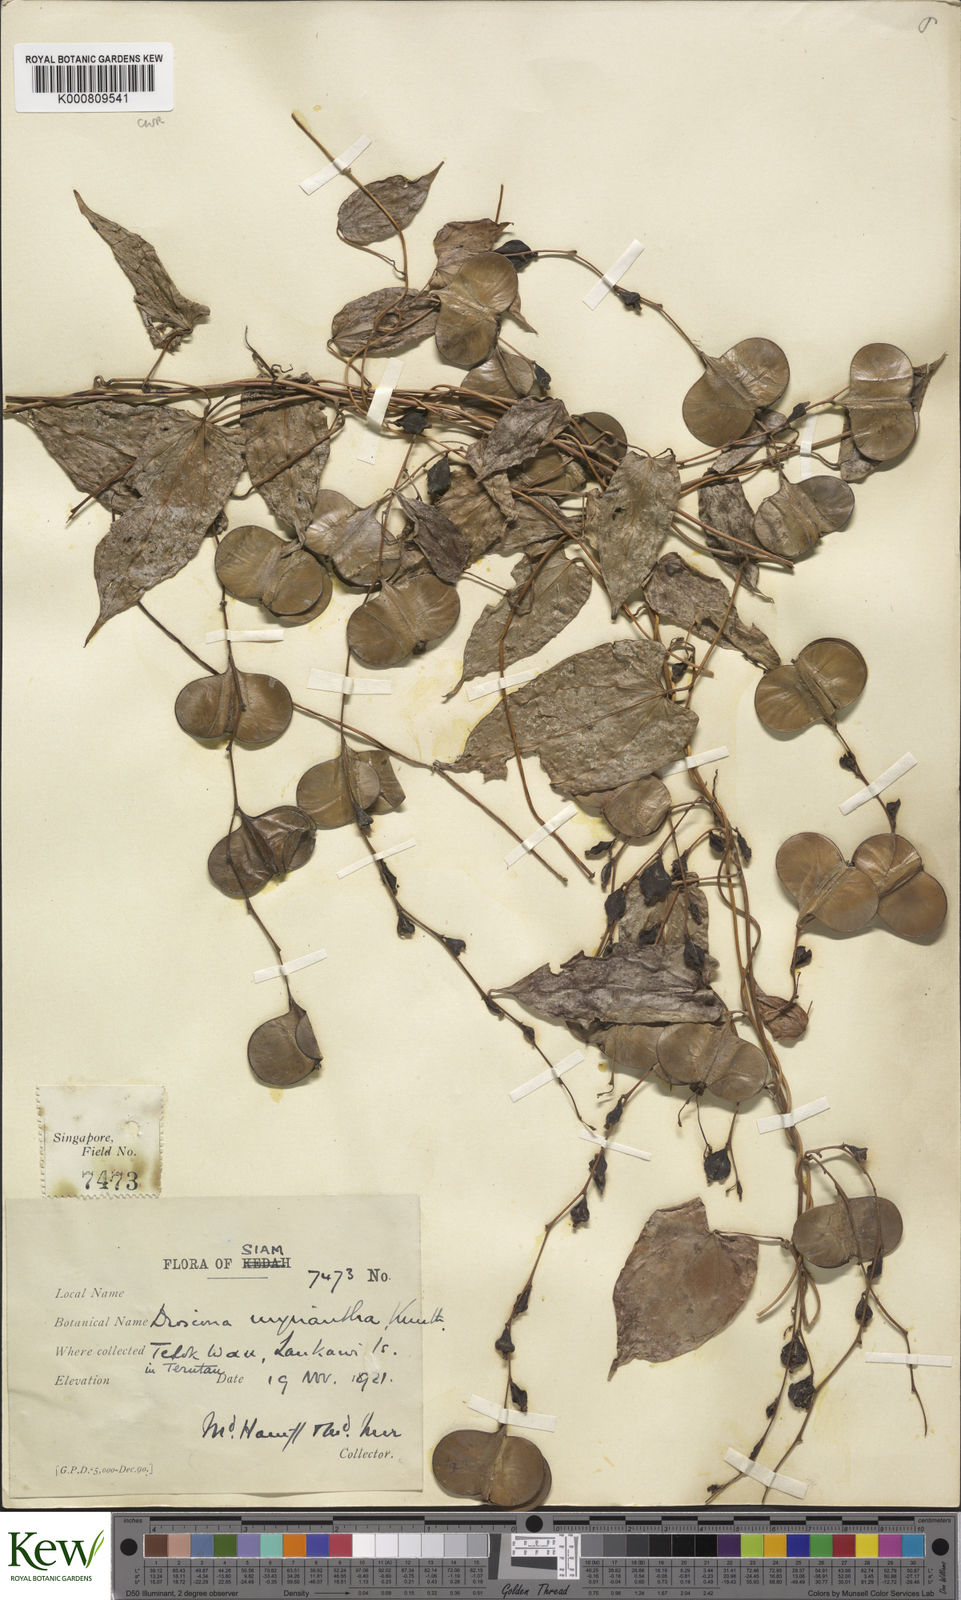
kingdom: Plantae
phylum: Tracheophyta
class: Liliopsida
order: Dioscoreales
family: Dioscoreaceae
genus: Dioscorea
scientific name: Dioscorea filiformis
